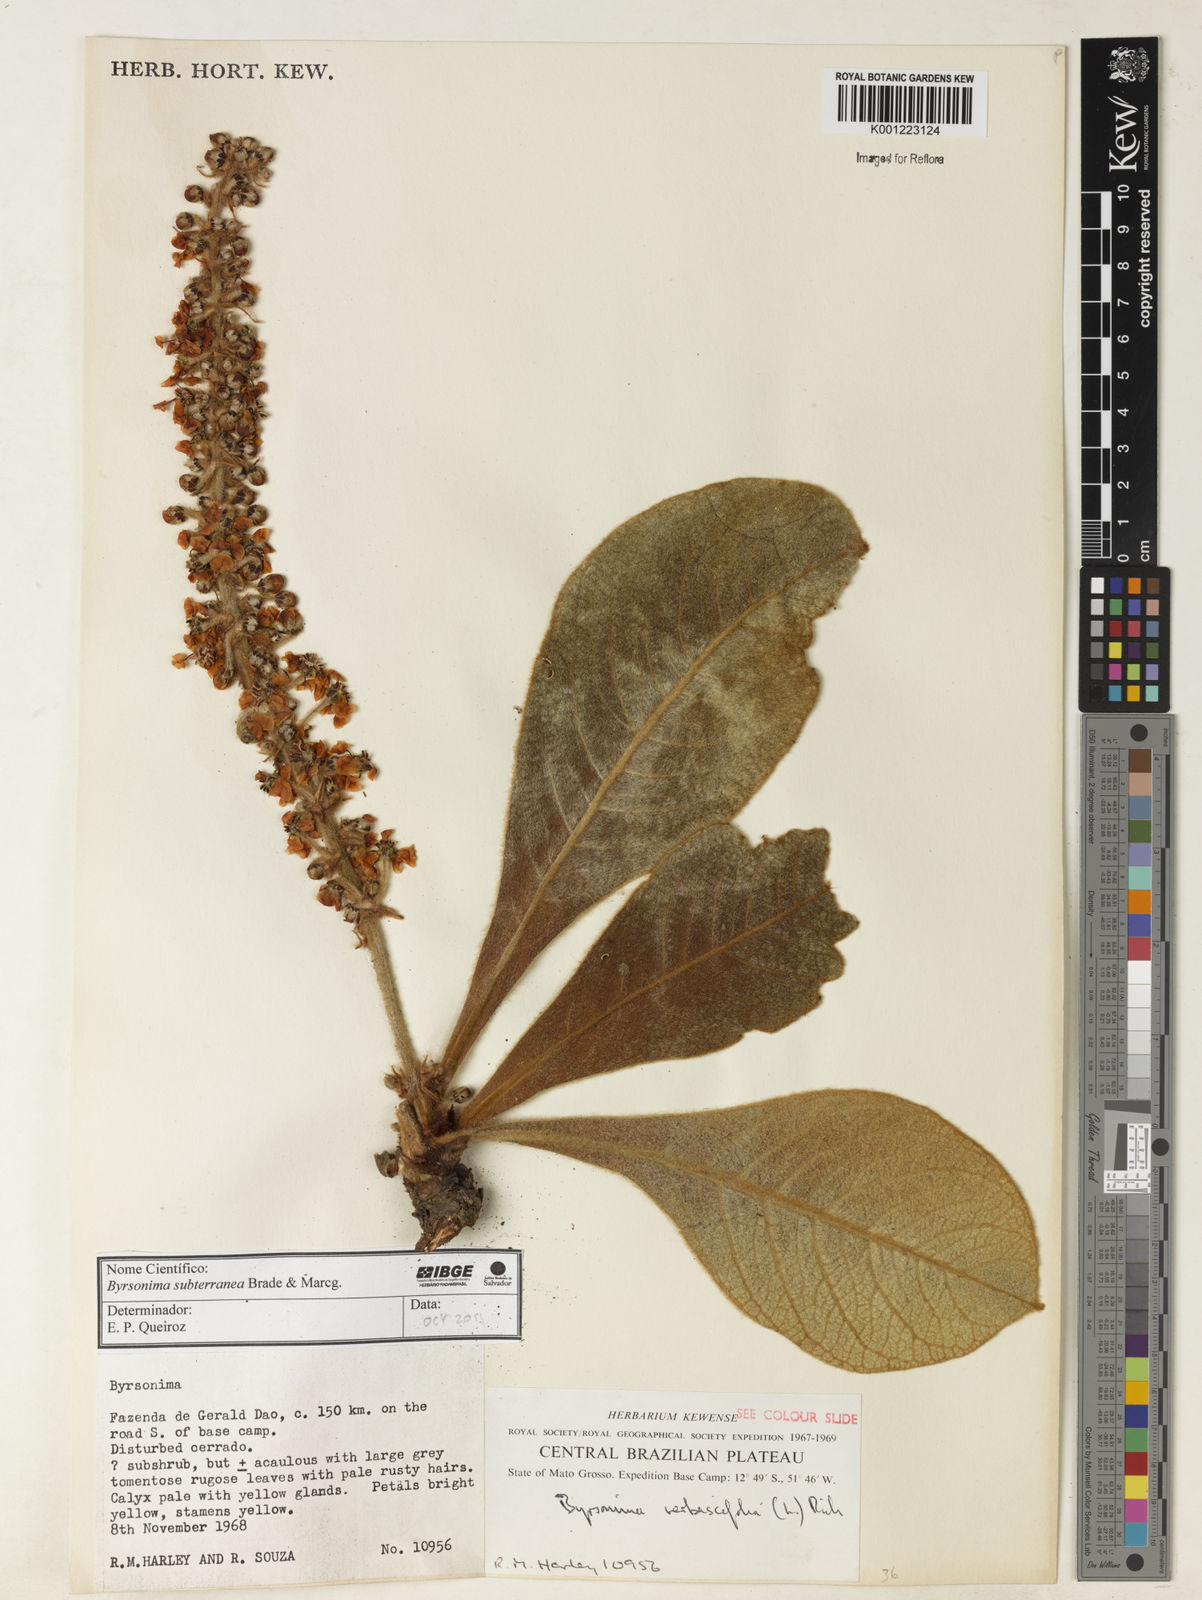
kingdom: Plantae
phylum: Tracheophyta
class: Magnoliopsida
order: Malpighiales
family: Malpighiaceae
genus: Byrsonima
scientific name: Byrsonima subterranea
